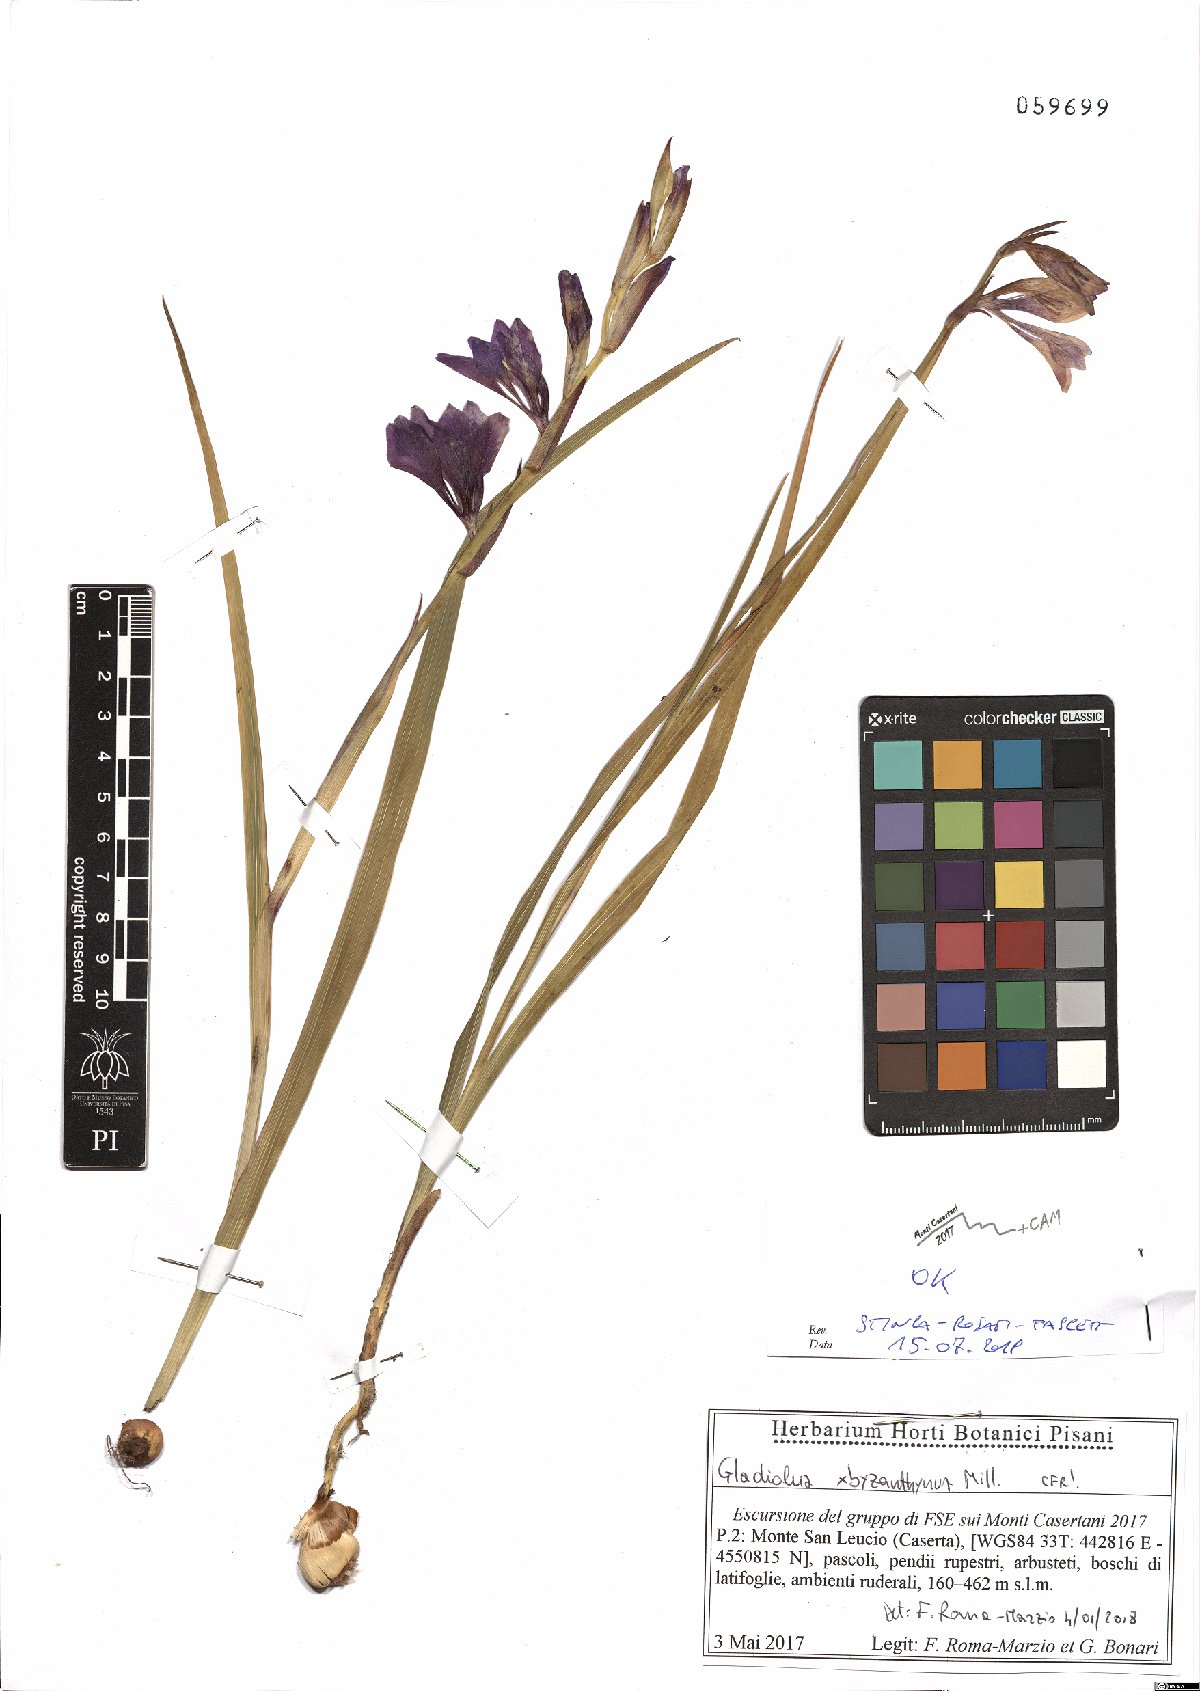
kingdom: Plantae
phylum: Tracheophyta
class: Liliopsida
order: Asparagales
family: Iridaceae
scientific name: Iridaceae
